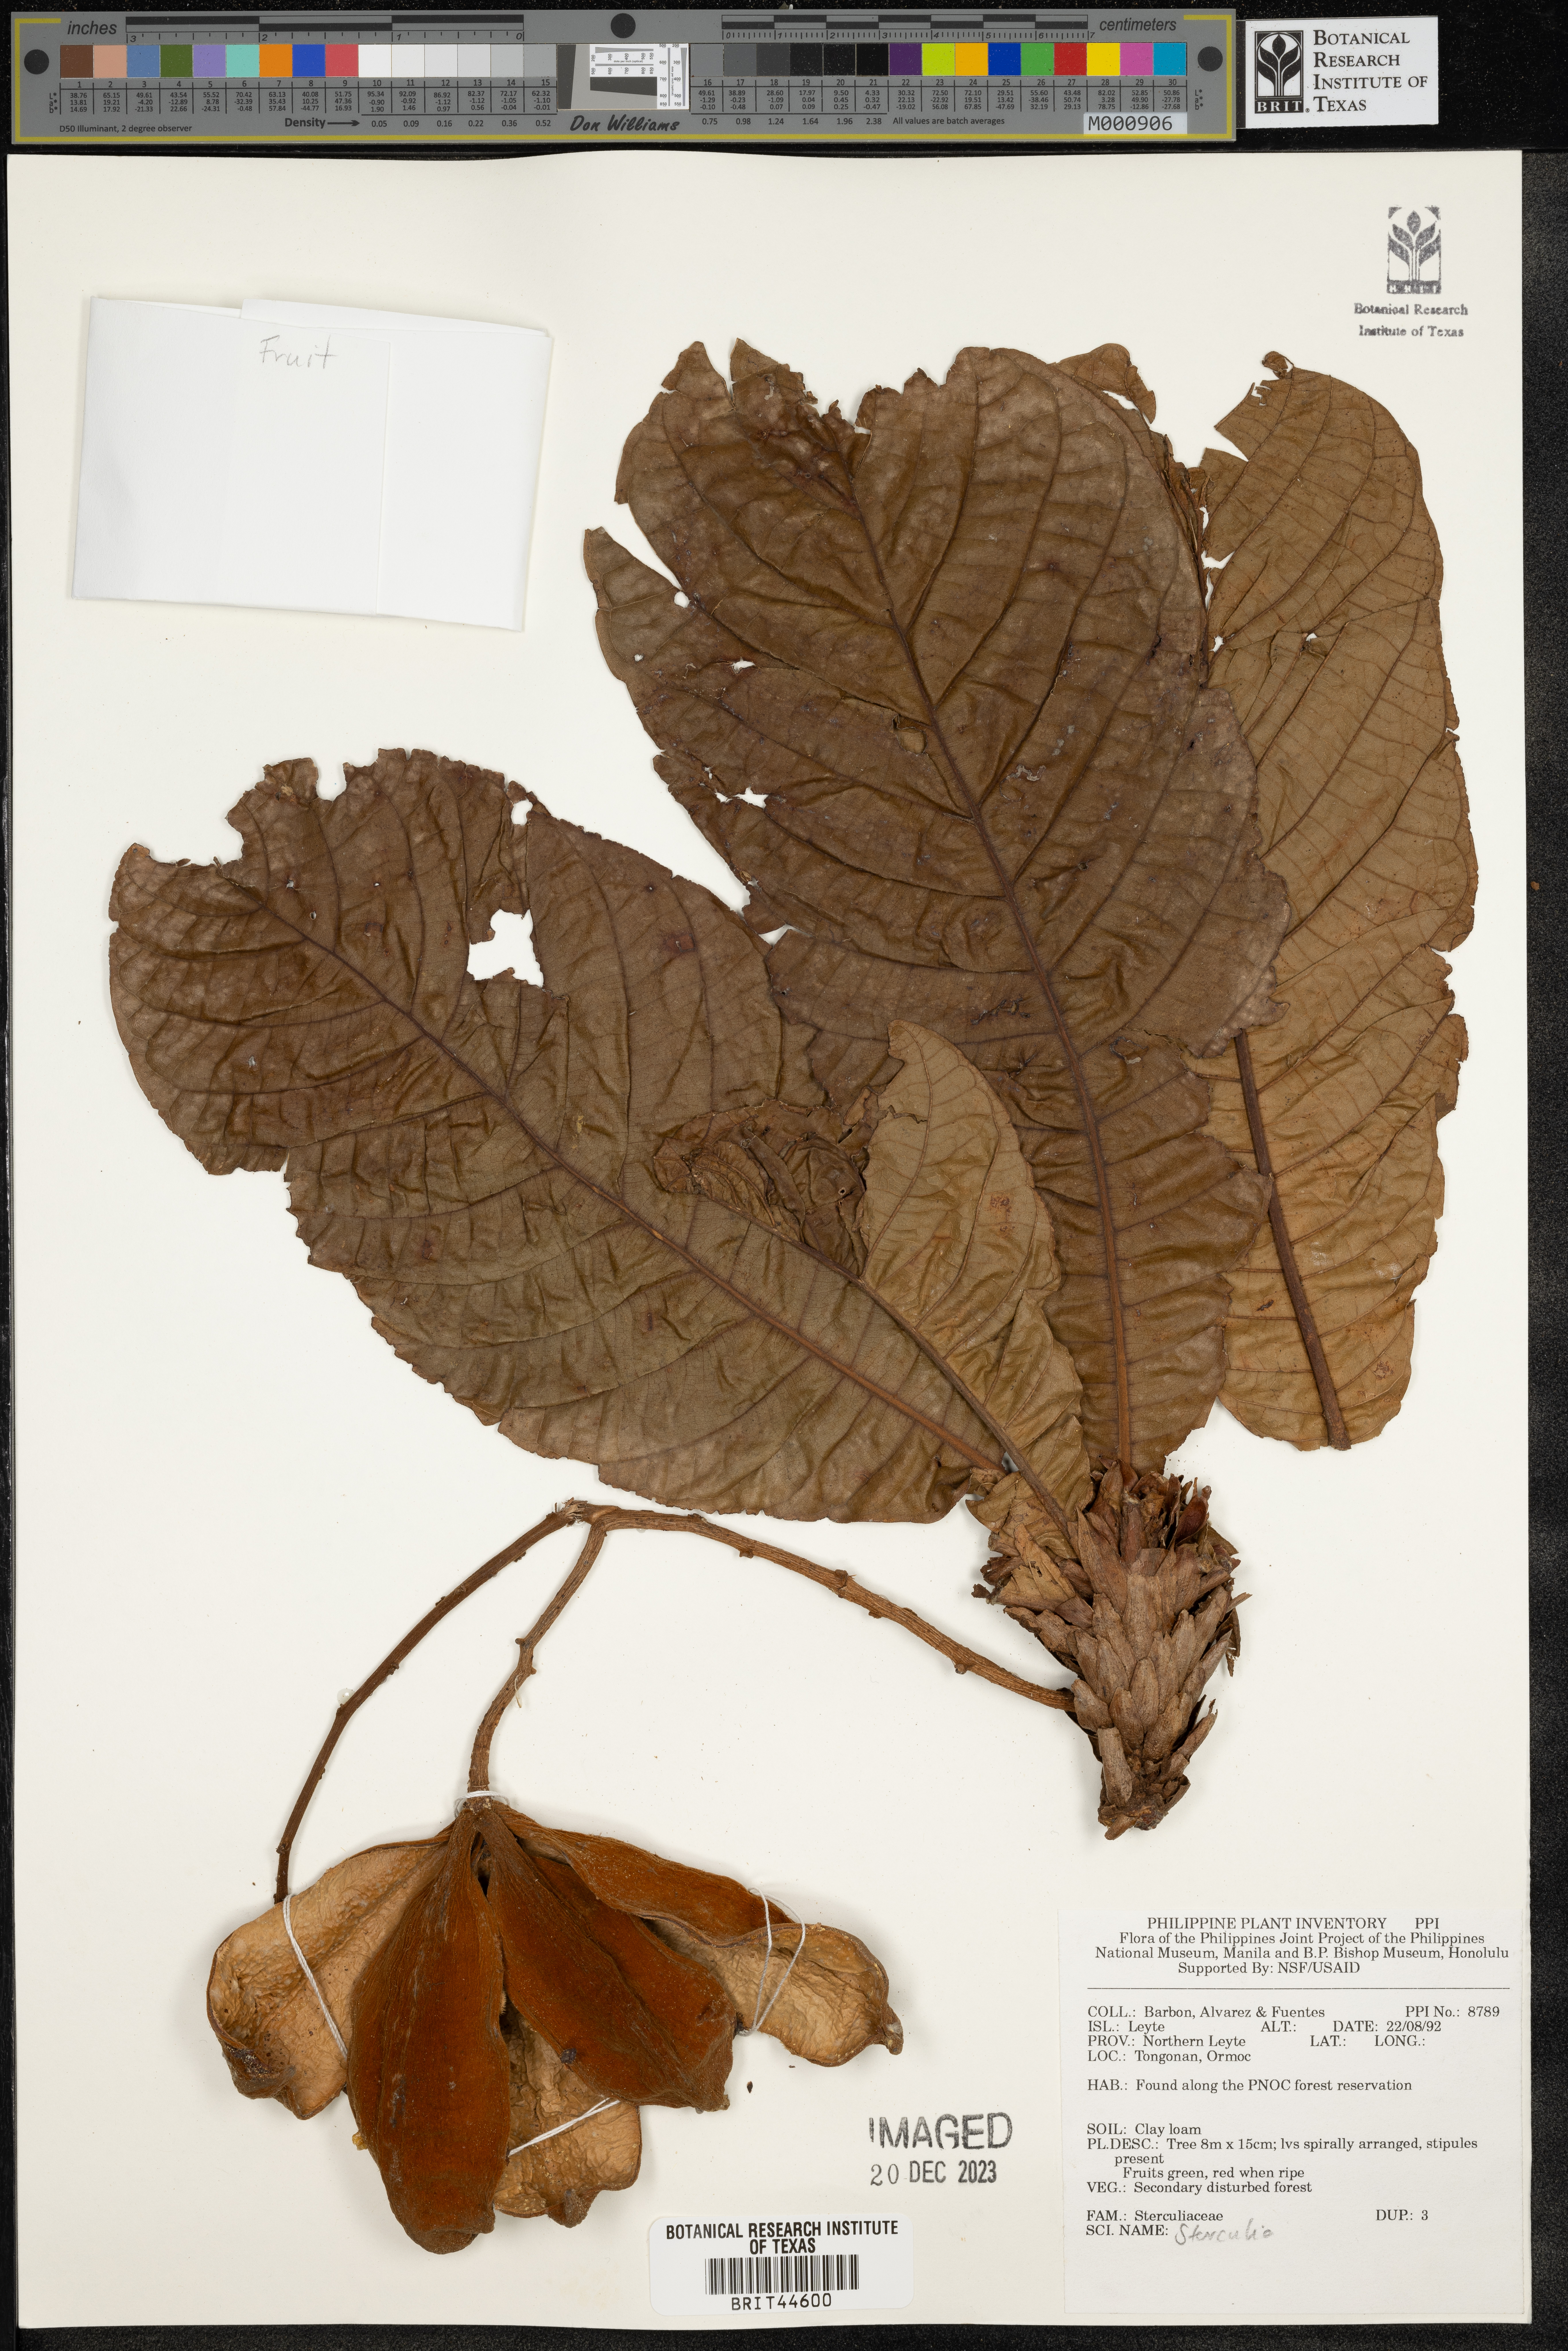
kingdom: Plantae
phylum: Tracheophyta
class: Magnoliopsida
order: Malvales
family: Malvaceae
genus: Sterculia
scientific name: Sterculia
